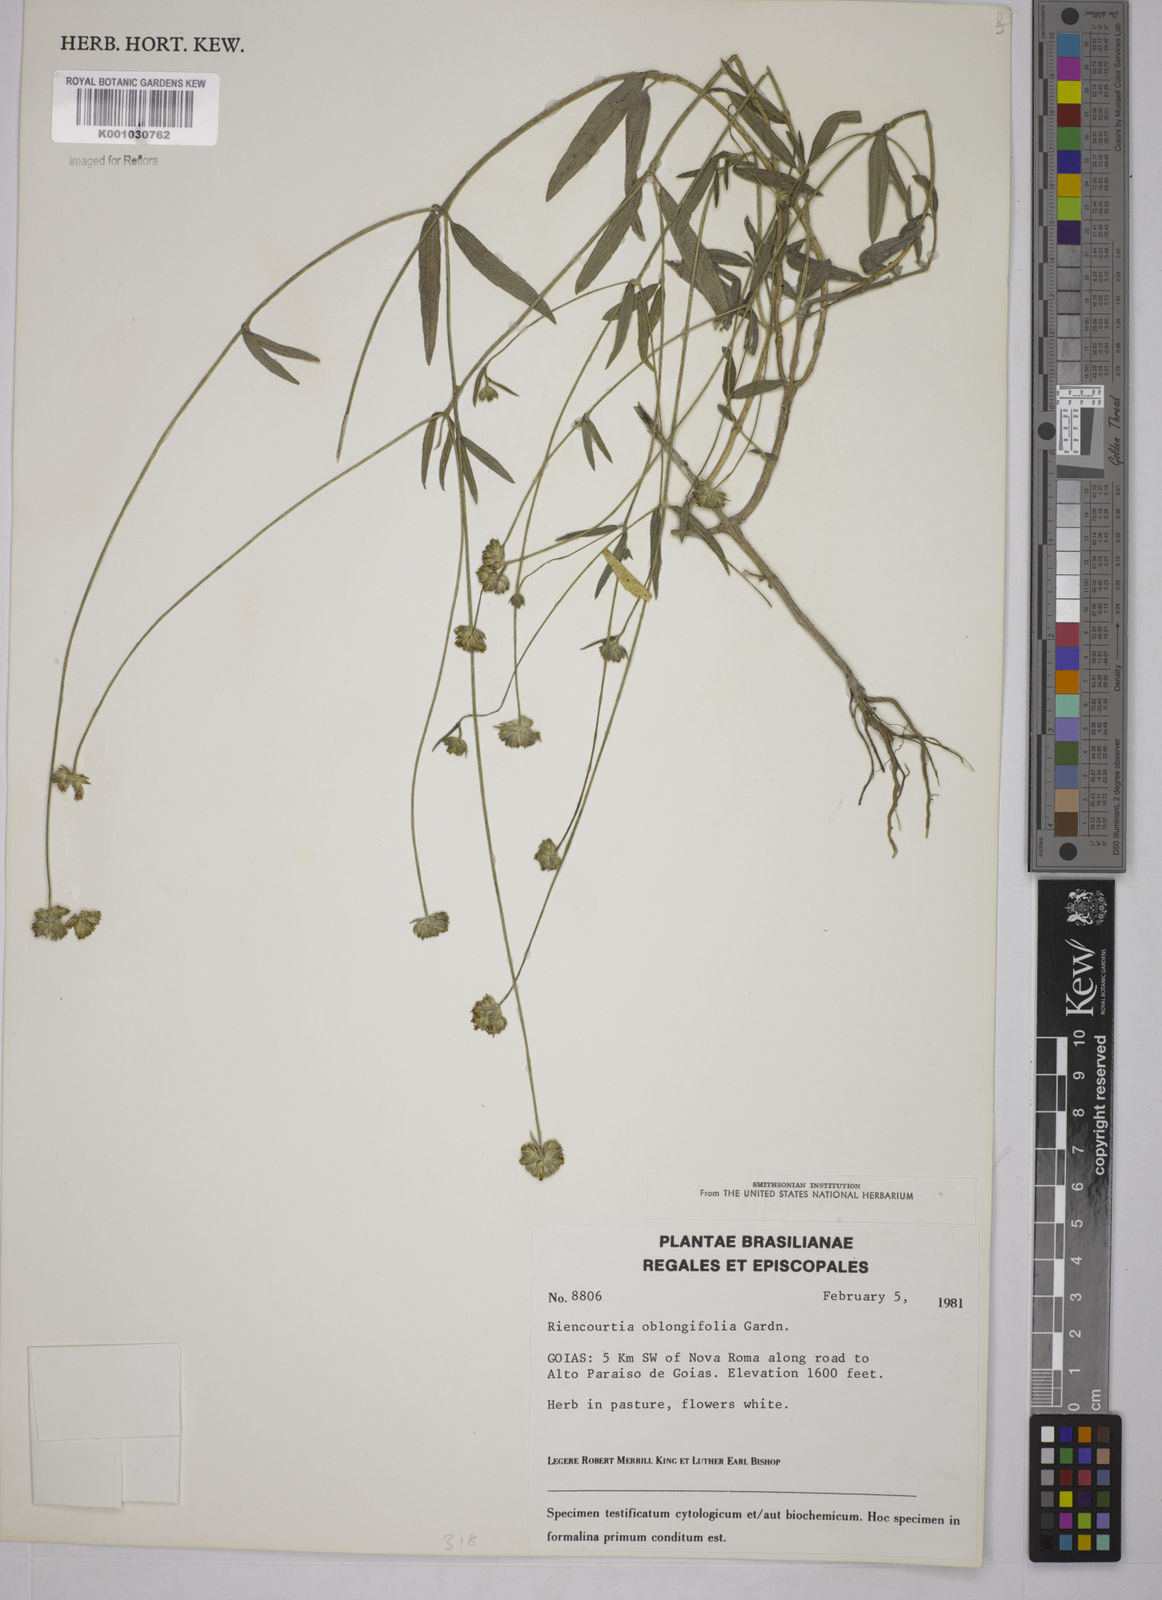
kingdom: Plantae
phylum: Tracheophyta
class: Magnoliopsida
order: Asterales
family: Asteraceae
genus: Riencourtia
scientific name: Riencourtia oblongifolia
